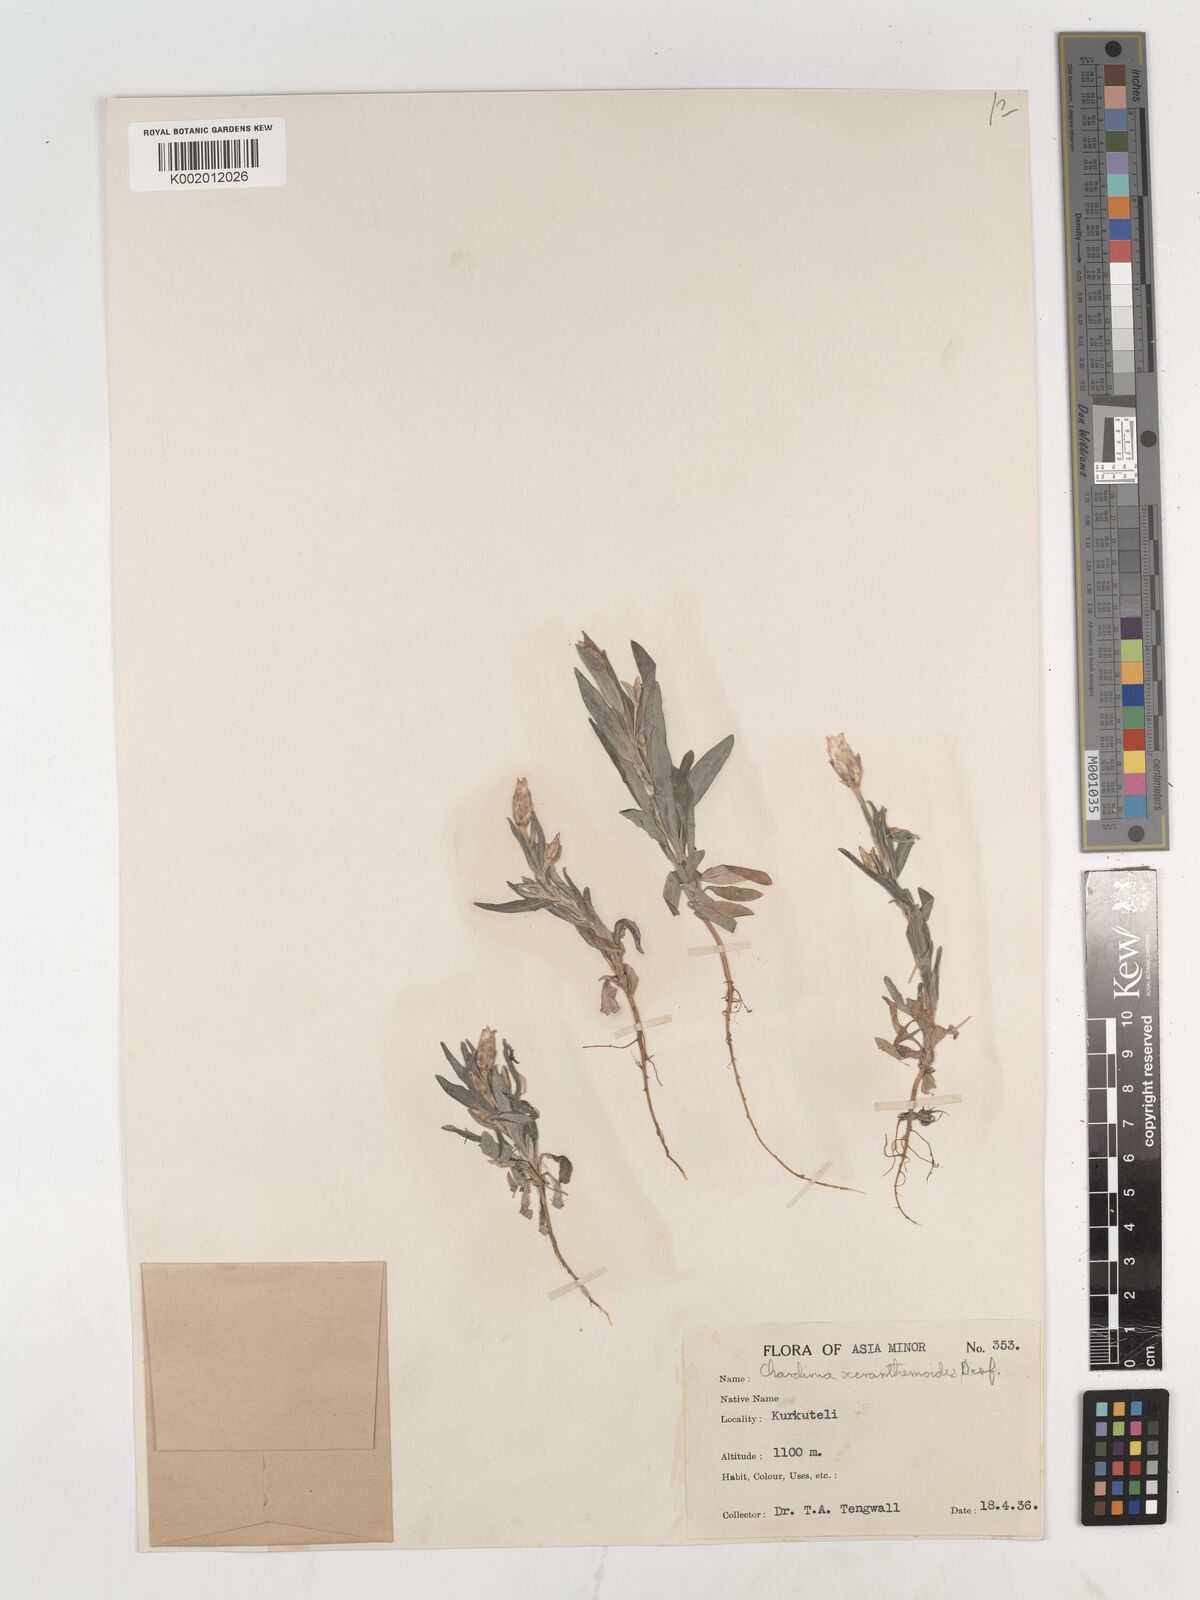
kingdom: Plantae
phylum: Tracheophyta
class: Magnoliopsida
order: Asterales
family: Asteraceae
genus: Chardinia
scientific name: Chardinia orientalis
